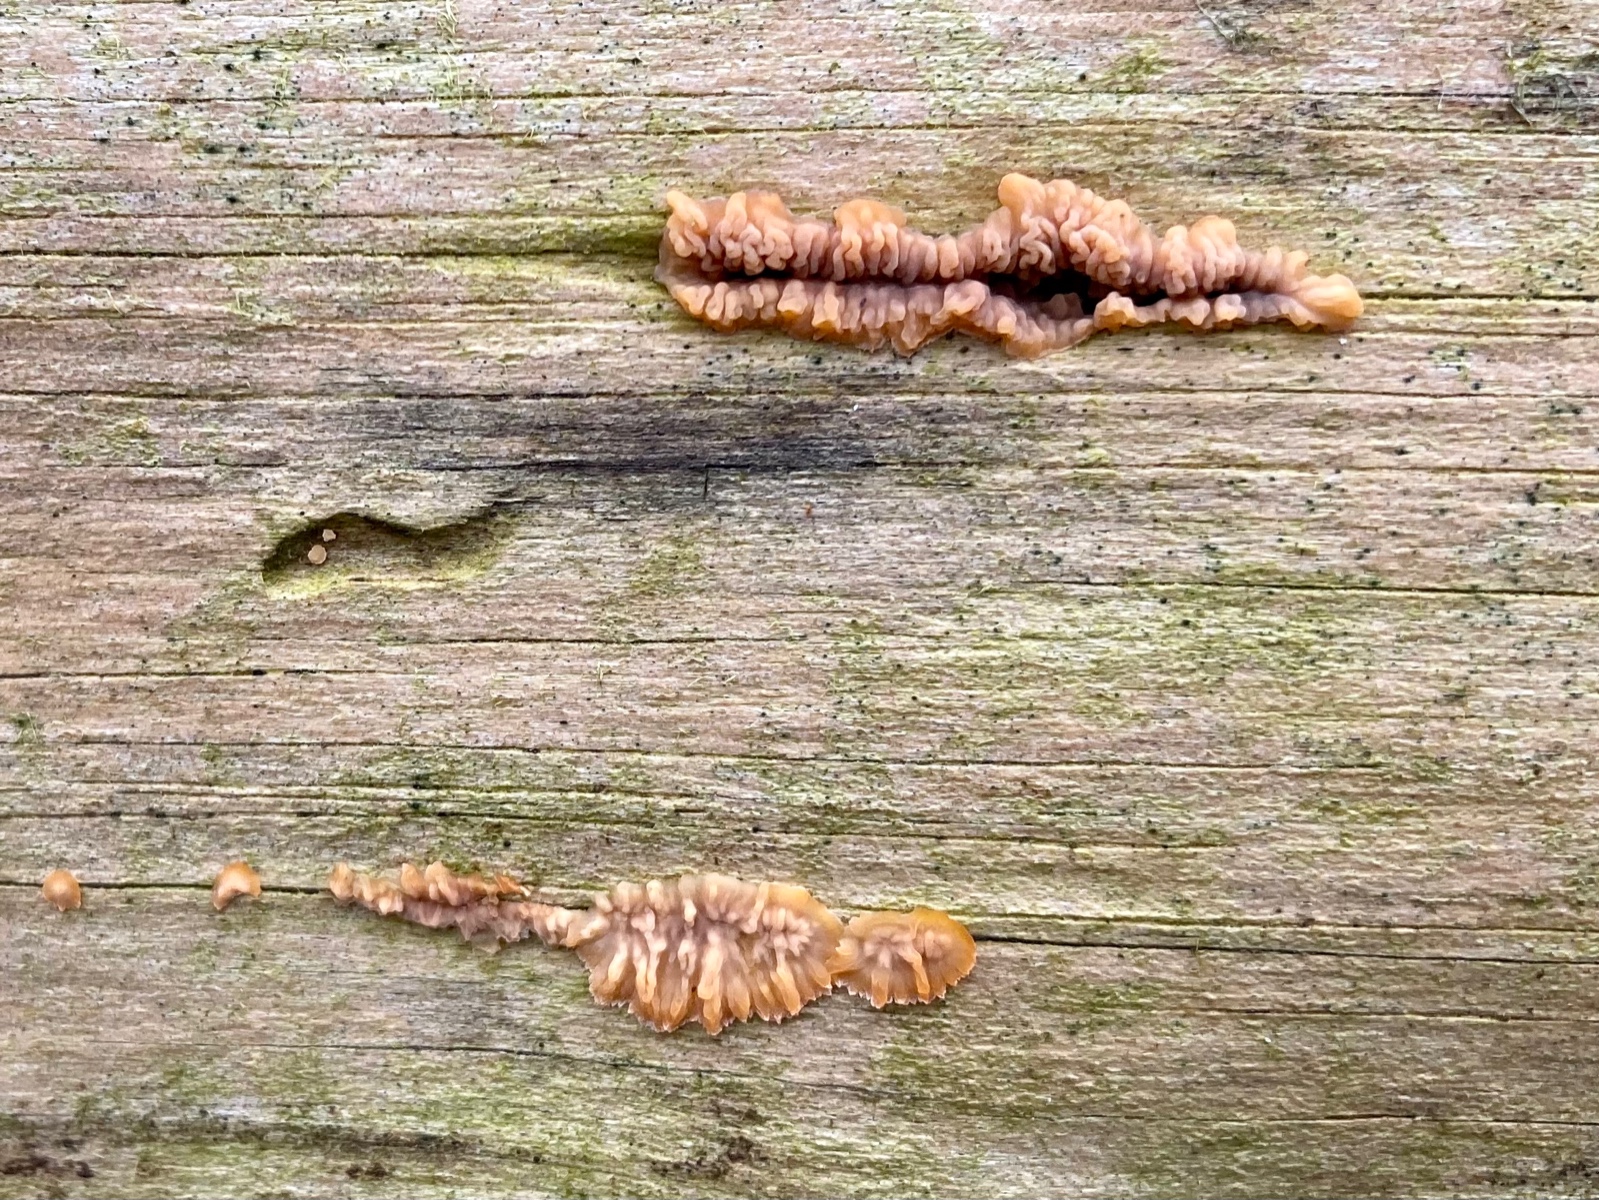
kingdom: Fungi
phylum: Basidiomycota
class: Agaricomycetes
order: Polyporales
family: Meruliaceae
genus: Phlebia
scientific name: Phlebia radiata
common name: stråle-åresvamp
